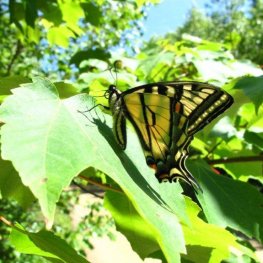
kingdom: Animalia
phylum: Arthropoda
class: Insecta
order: Lepidoptera
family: Papilionidae
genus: Pterourus
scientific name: Pterourus canadensis
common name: Canadian Tiger Swallowtail
